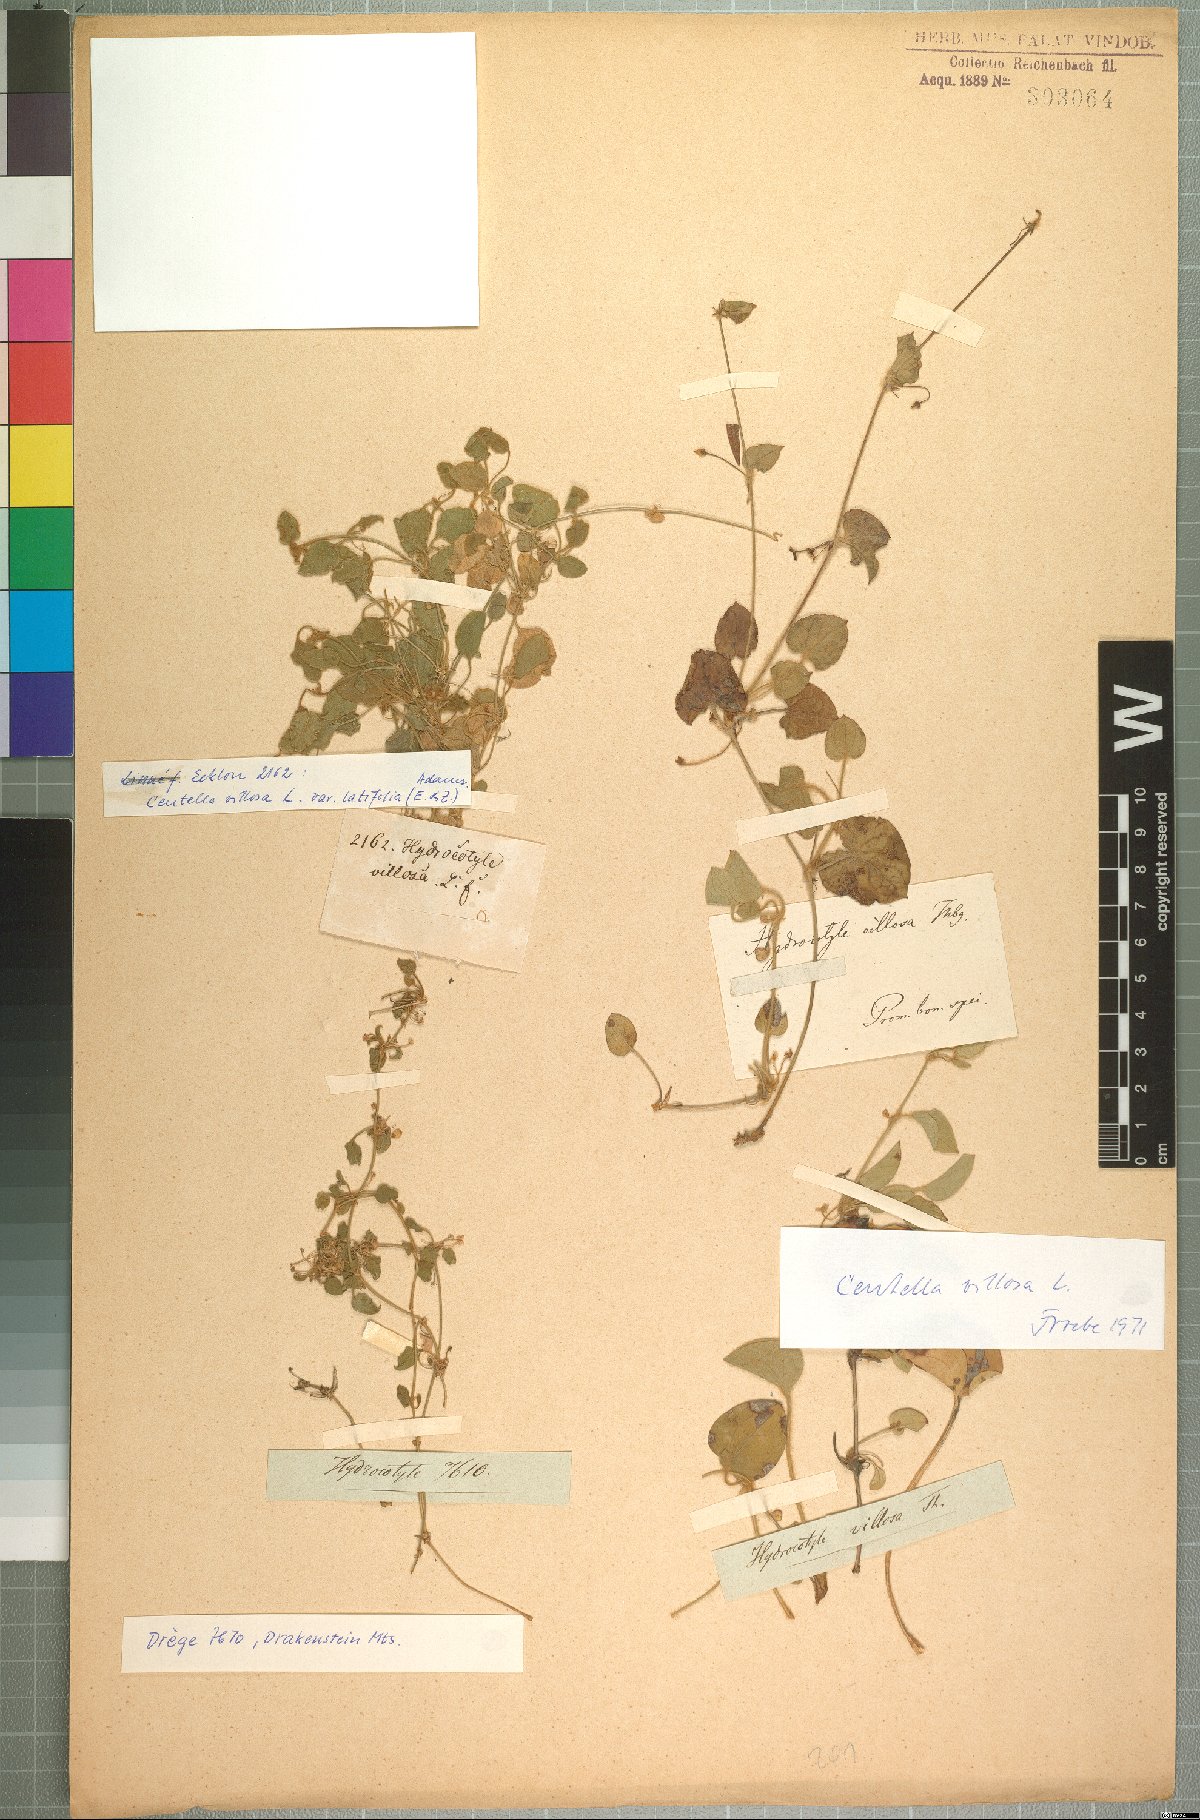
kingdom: Plantae
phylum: Tracheophyta
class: Magnoliopsida
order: Apiales
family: Apiaceae
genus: Centella
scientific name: Centella villosa
